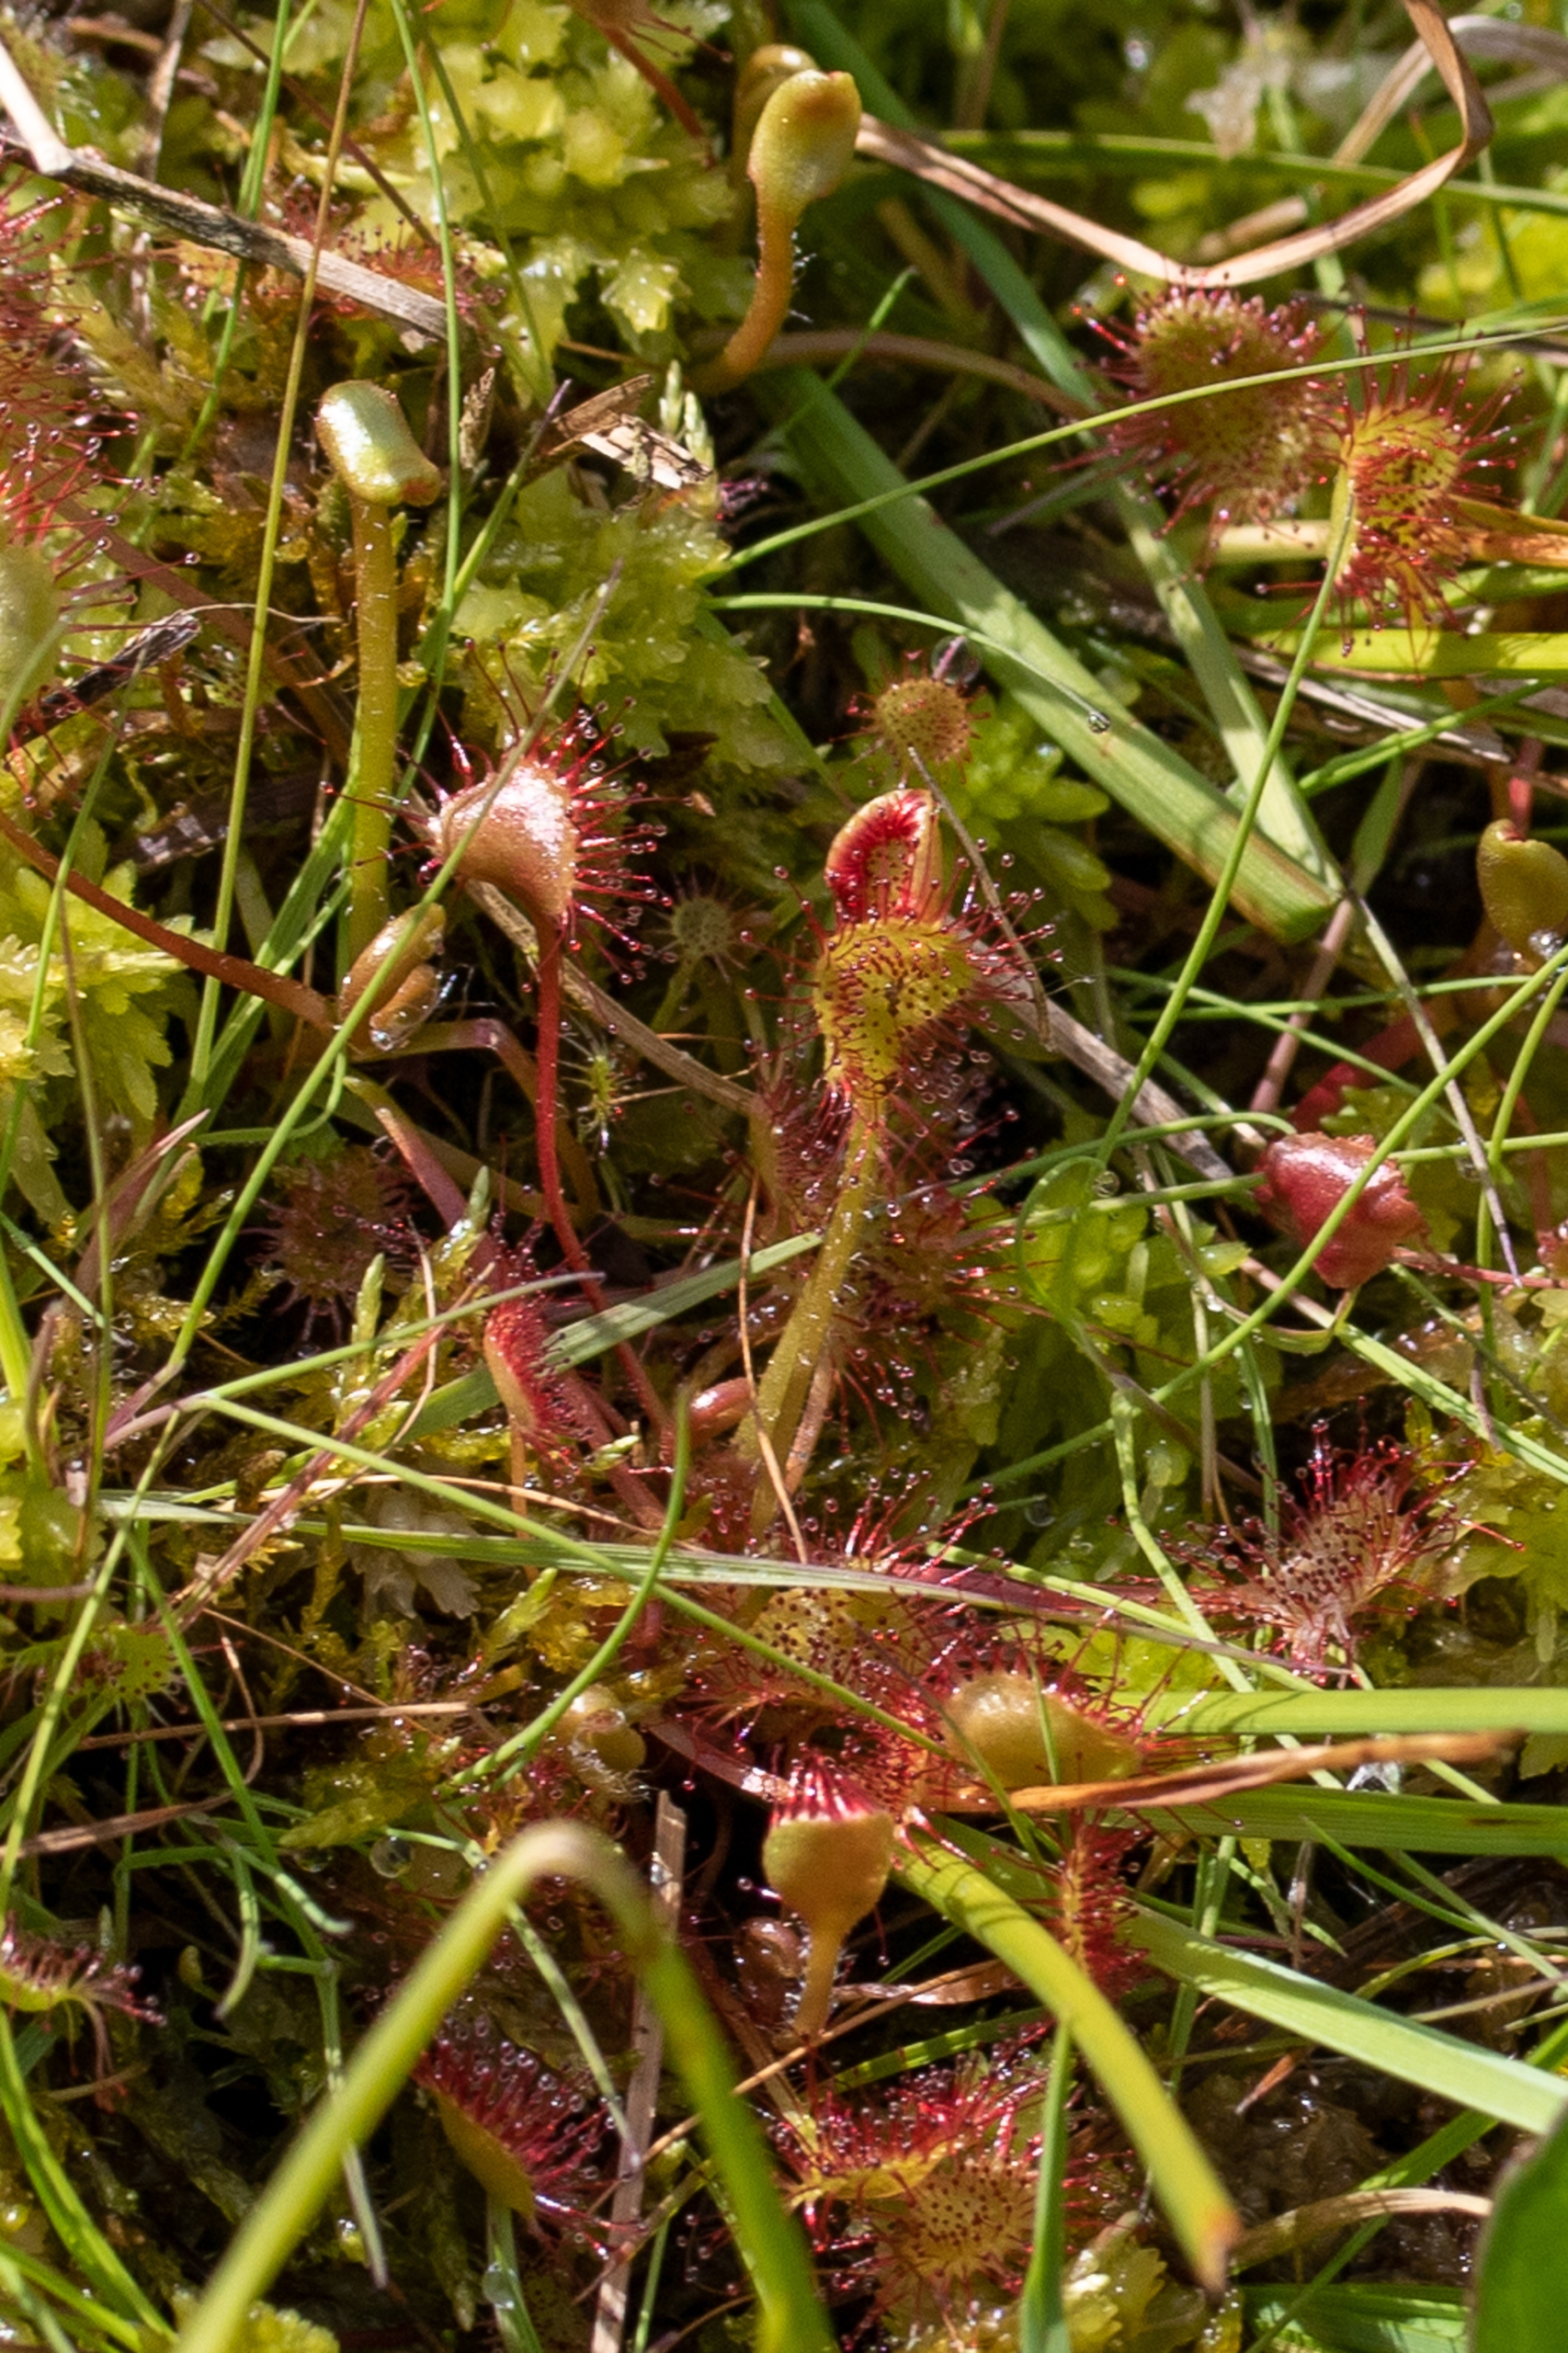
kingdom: Plantae
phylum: Tracheophyta
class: Magnoliopsida
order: Caryophyllales
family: Droseraceae
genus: Drosera
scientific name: Drosera rotundifolia
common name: Rundbladet soldug
